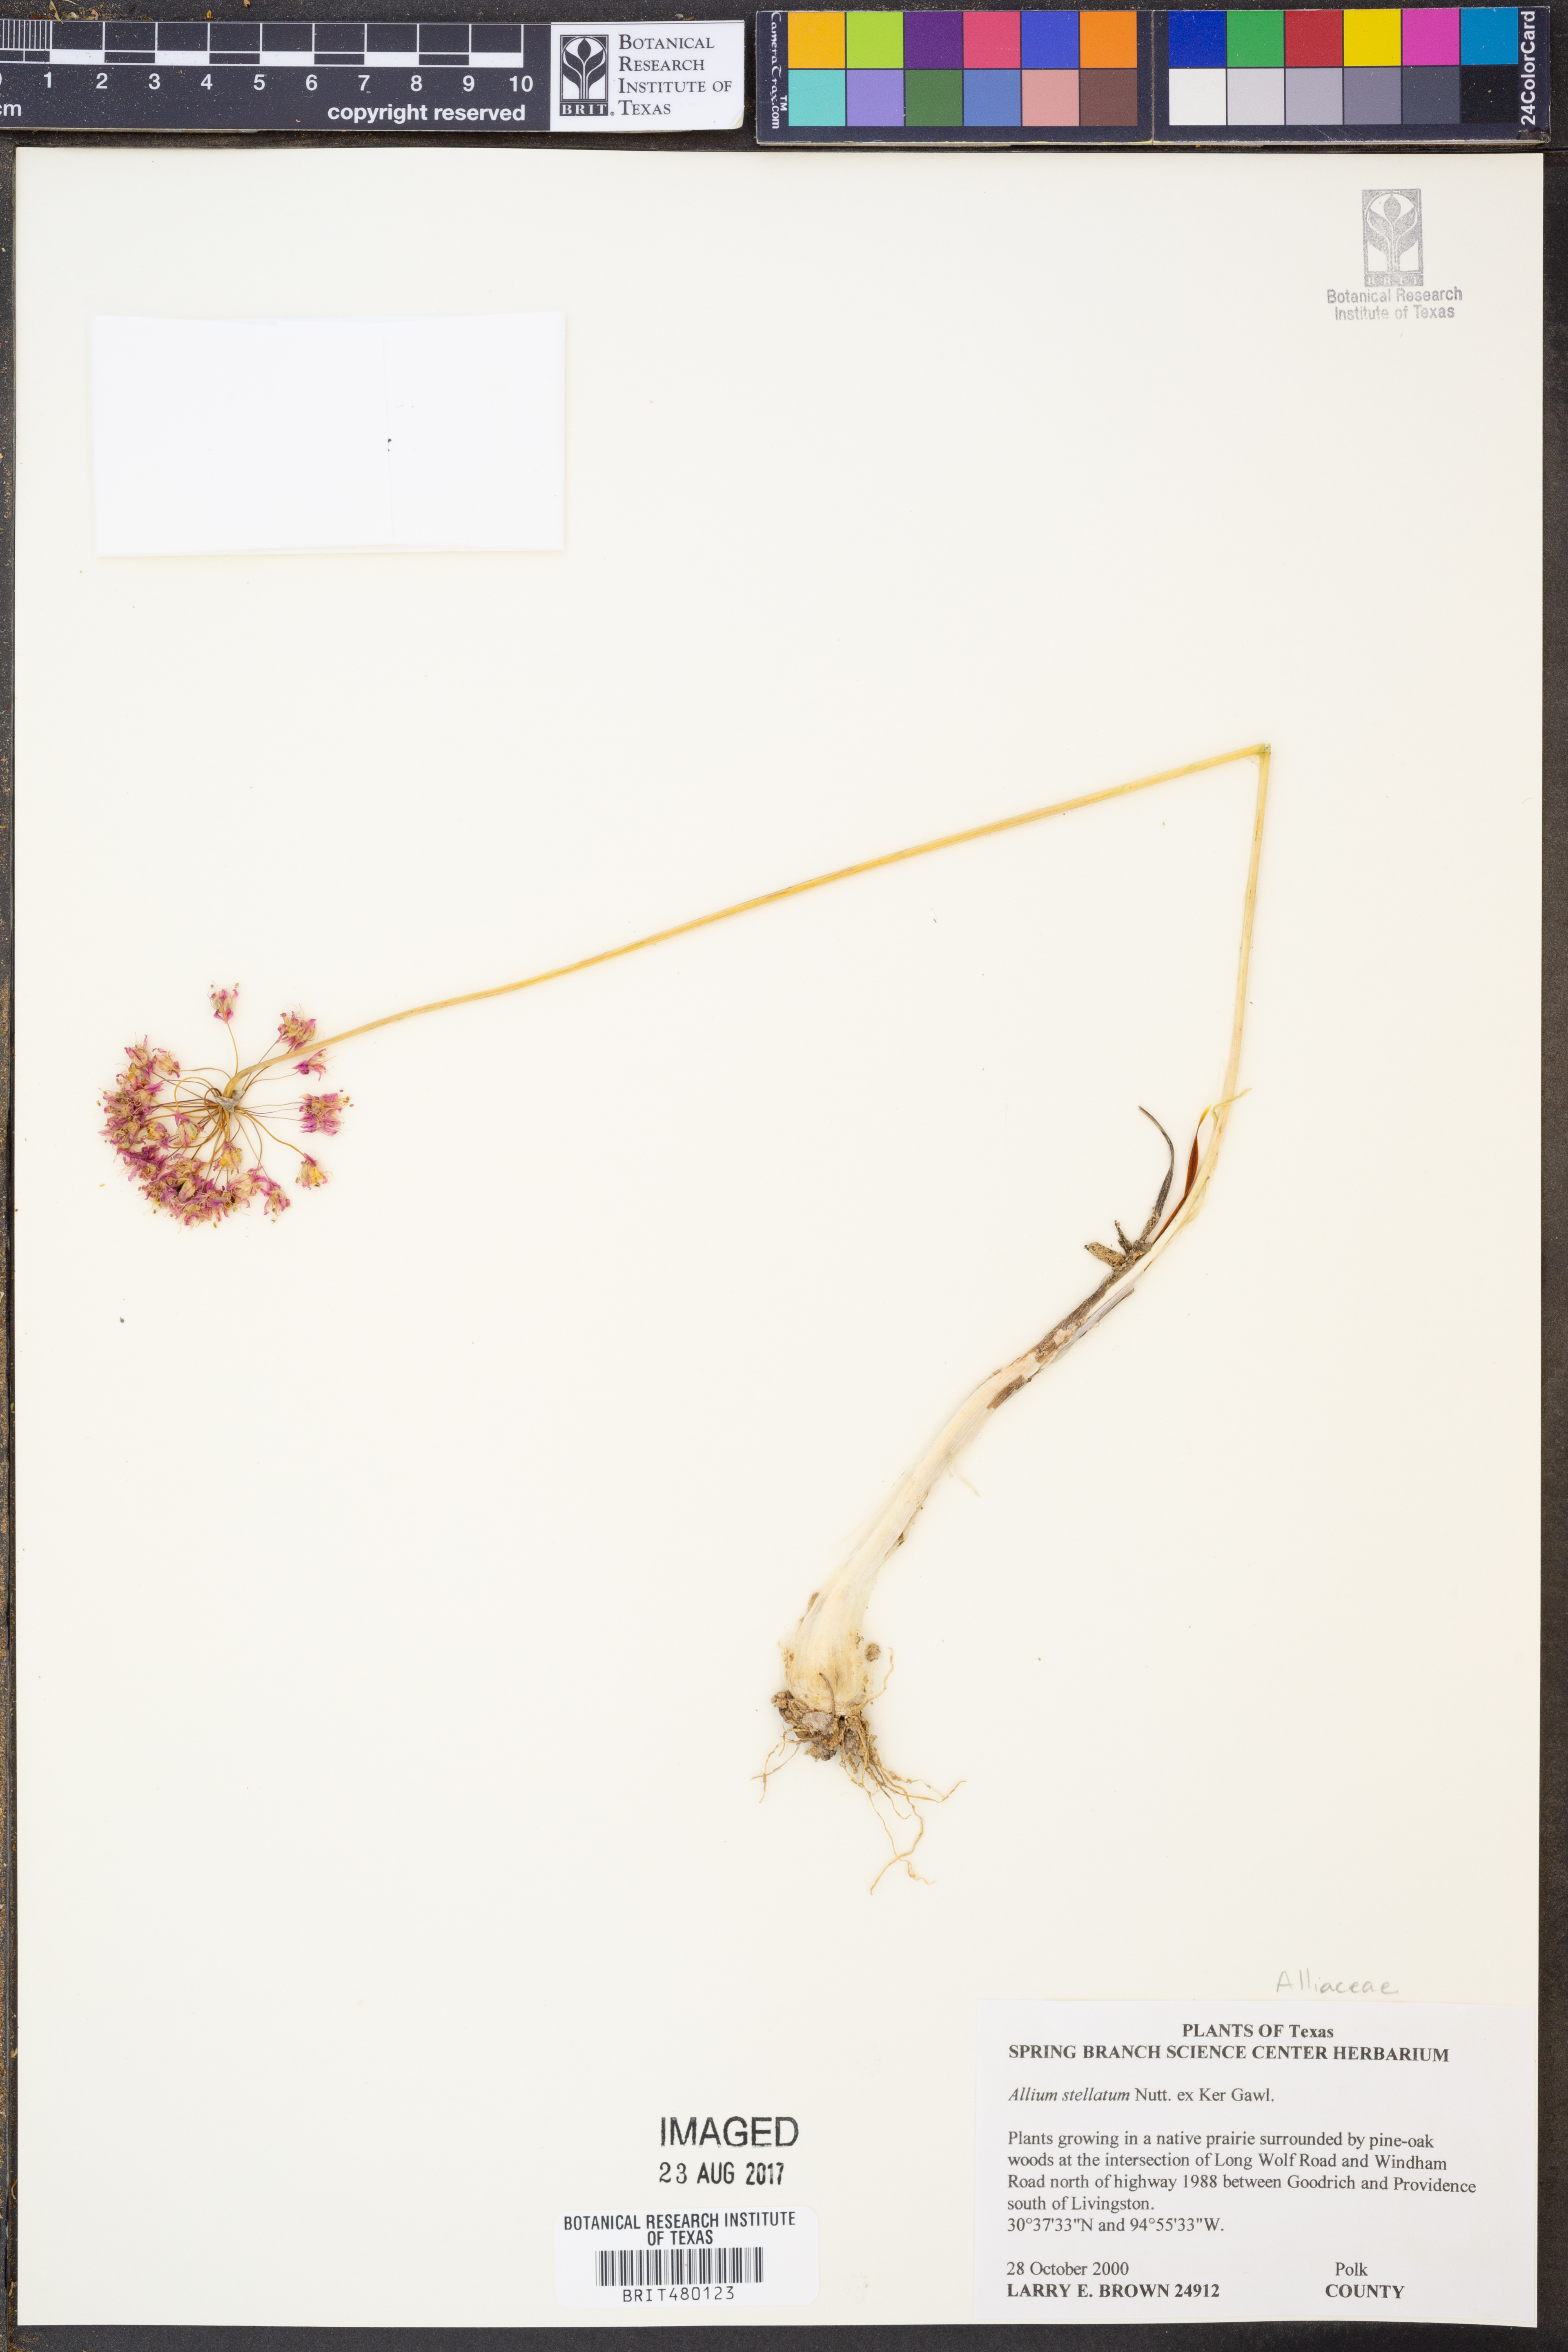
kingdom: Plantae
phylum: Tracheophyta
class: Liliopsida
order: Asparagales
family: Amaryllidaceae
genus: Allium
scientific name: Allium stellatum
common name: Autumn onion
